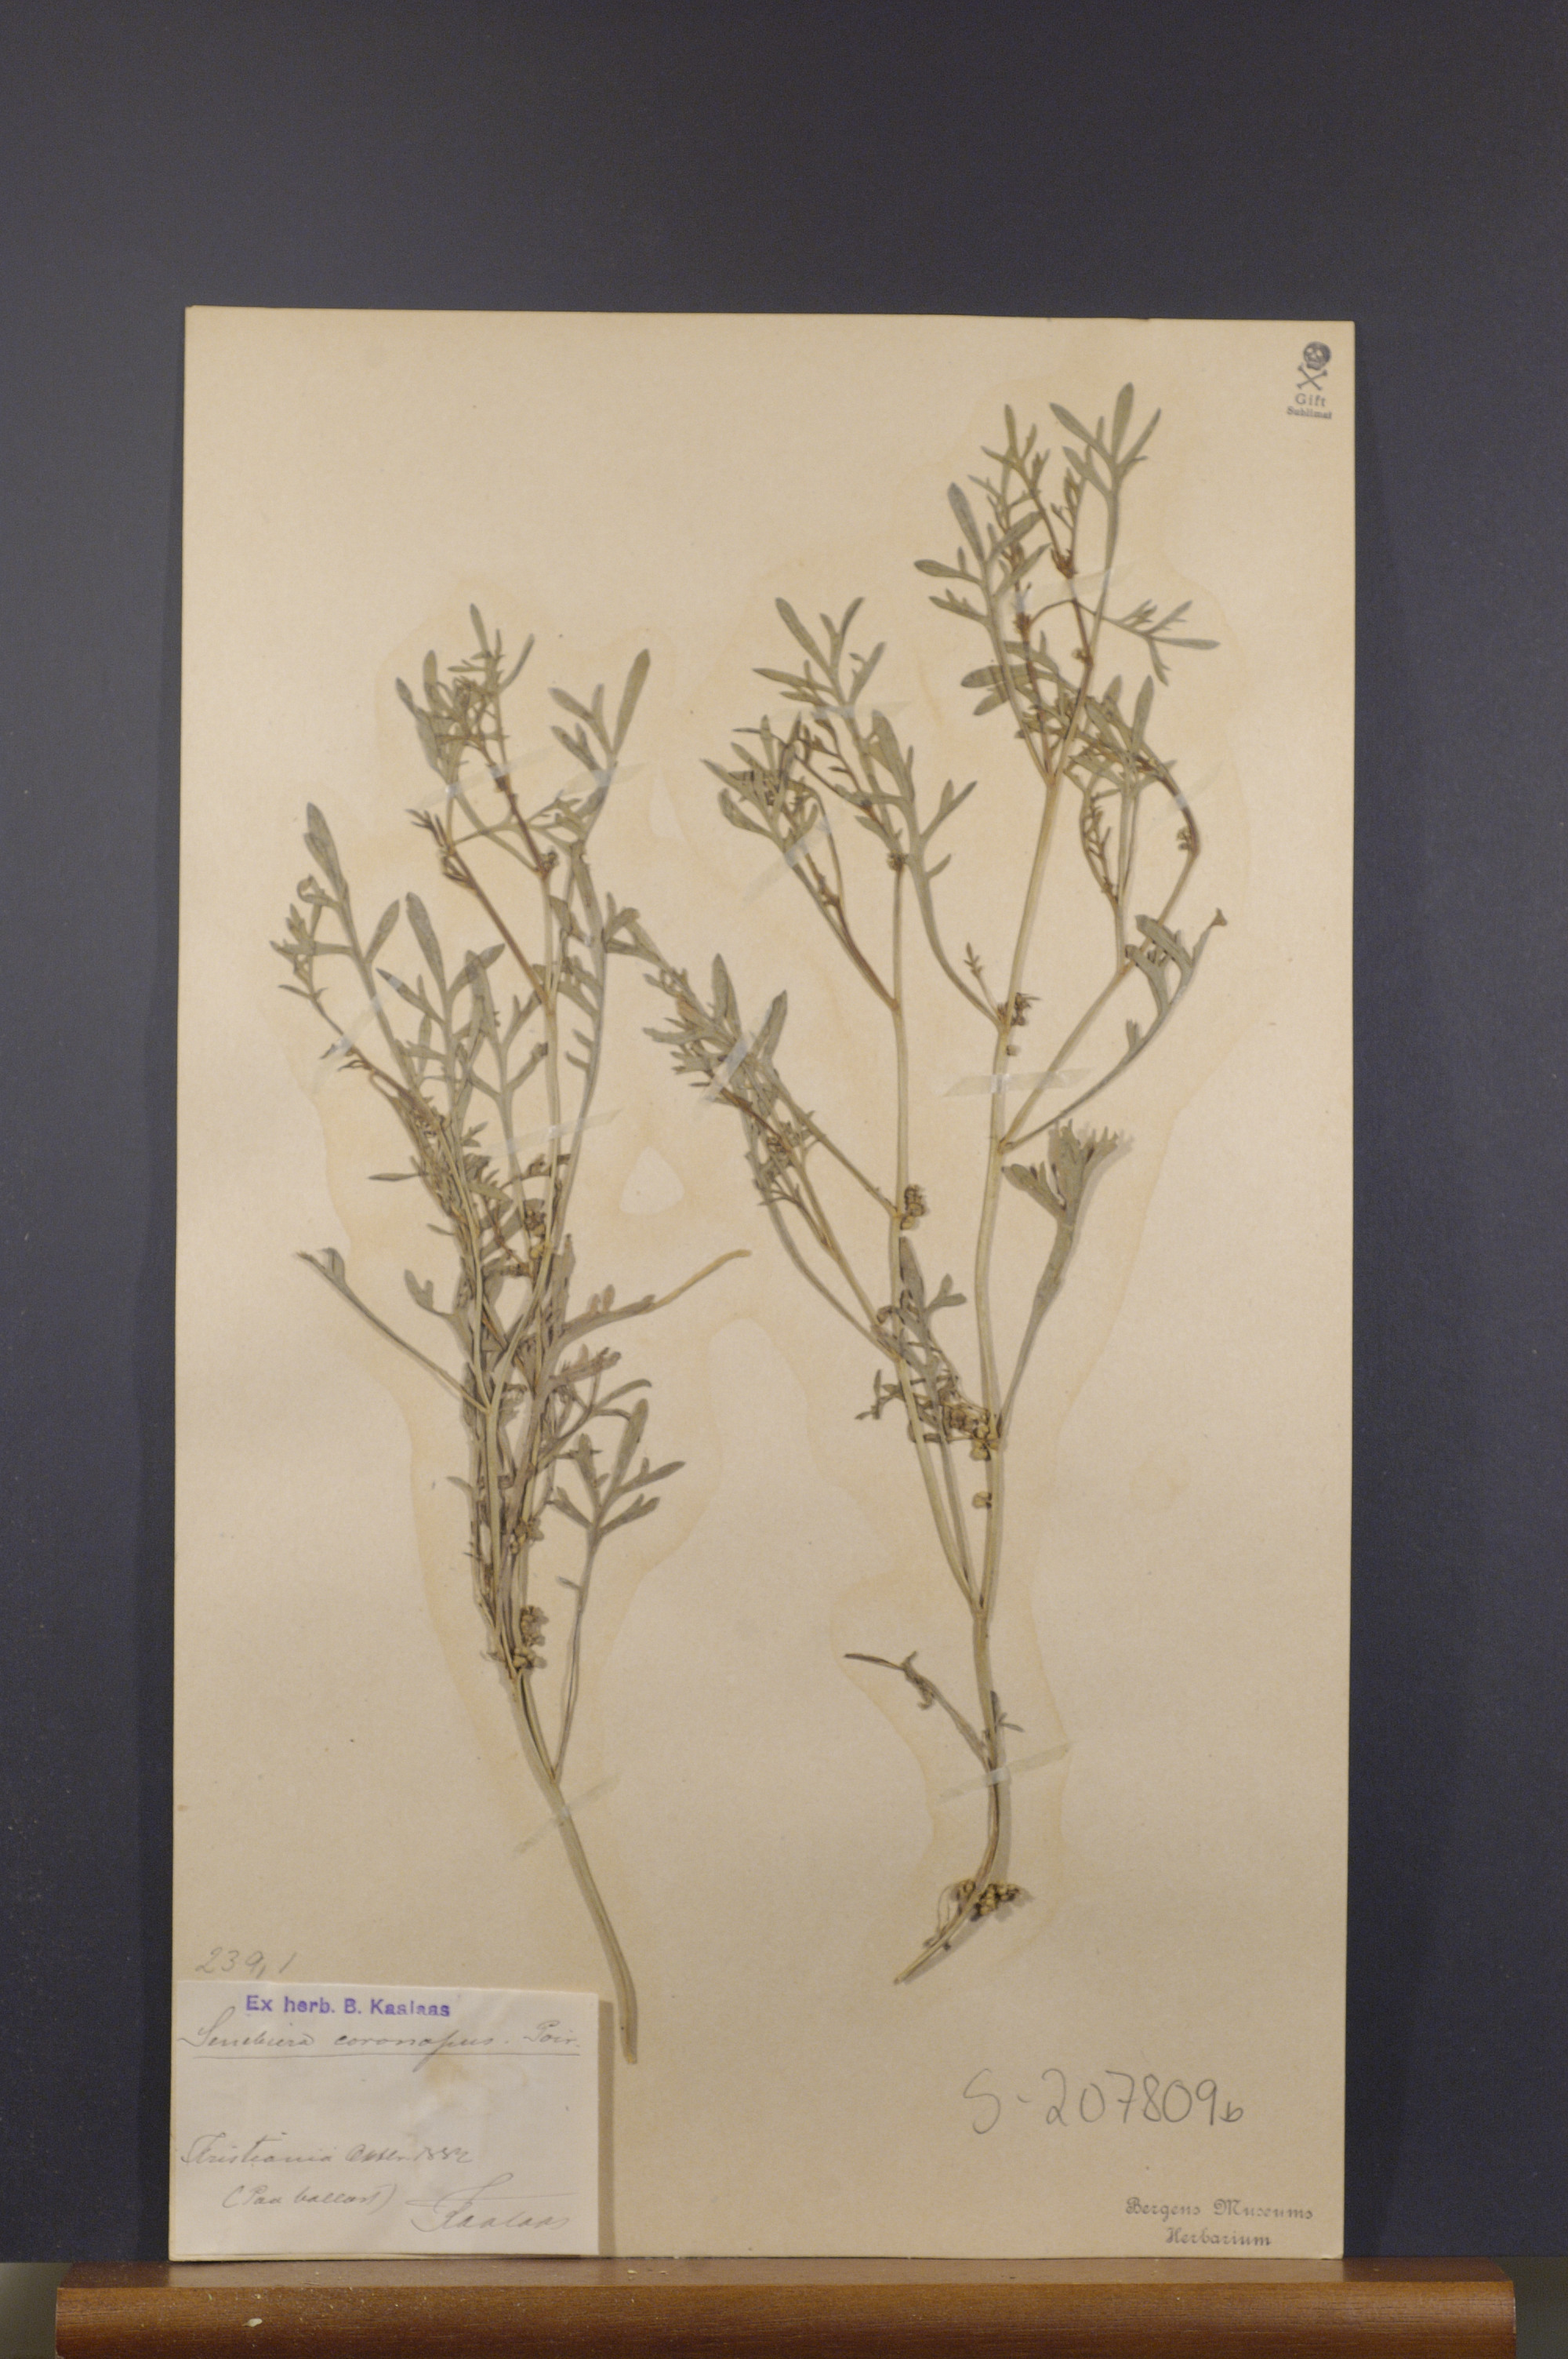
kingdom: Plantae
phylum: Tracheophyta
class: Magnoliopsida
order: Brassicales
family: Brassicaceae
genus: Lepidium
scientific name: Lepidium coronopus
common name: Greater swinecress
